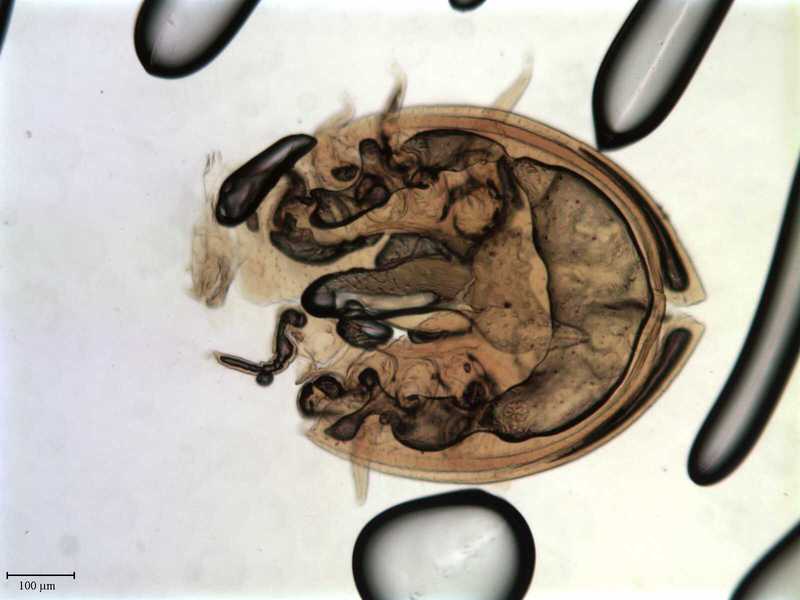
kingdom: Animalia
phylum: Arthropoda
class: Arachnida
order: Mesostigmata
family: Uropodidae
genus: Uroobovella
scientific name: Uroobovella marginata
